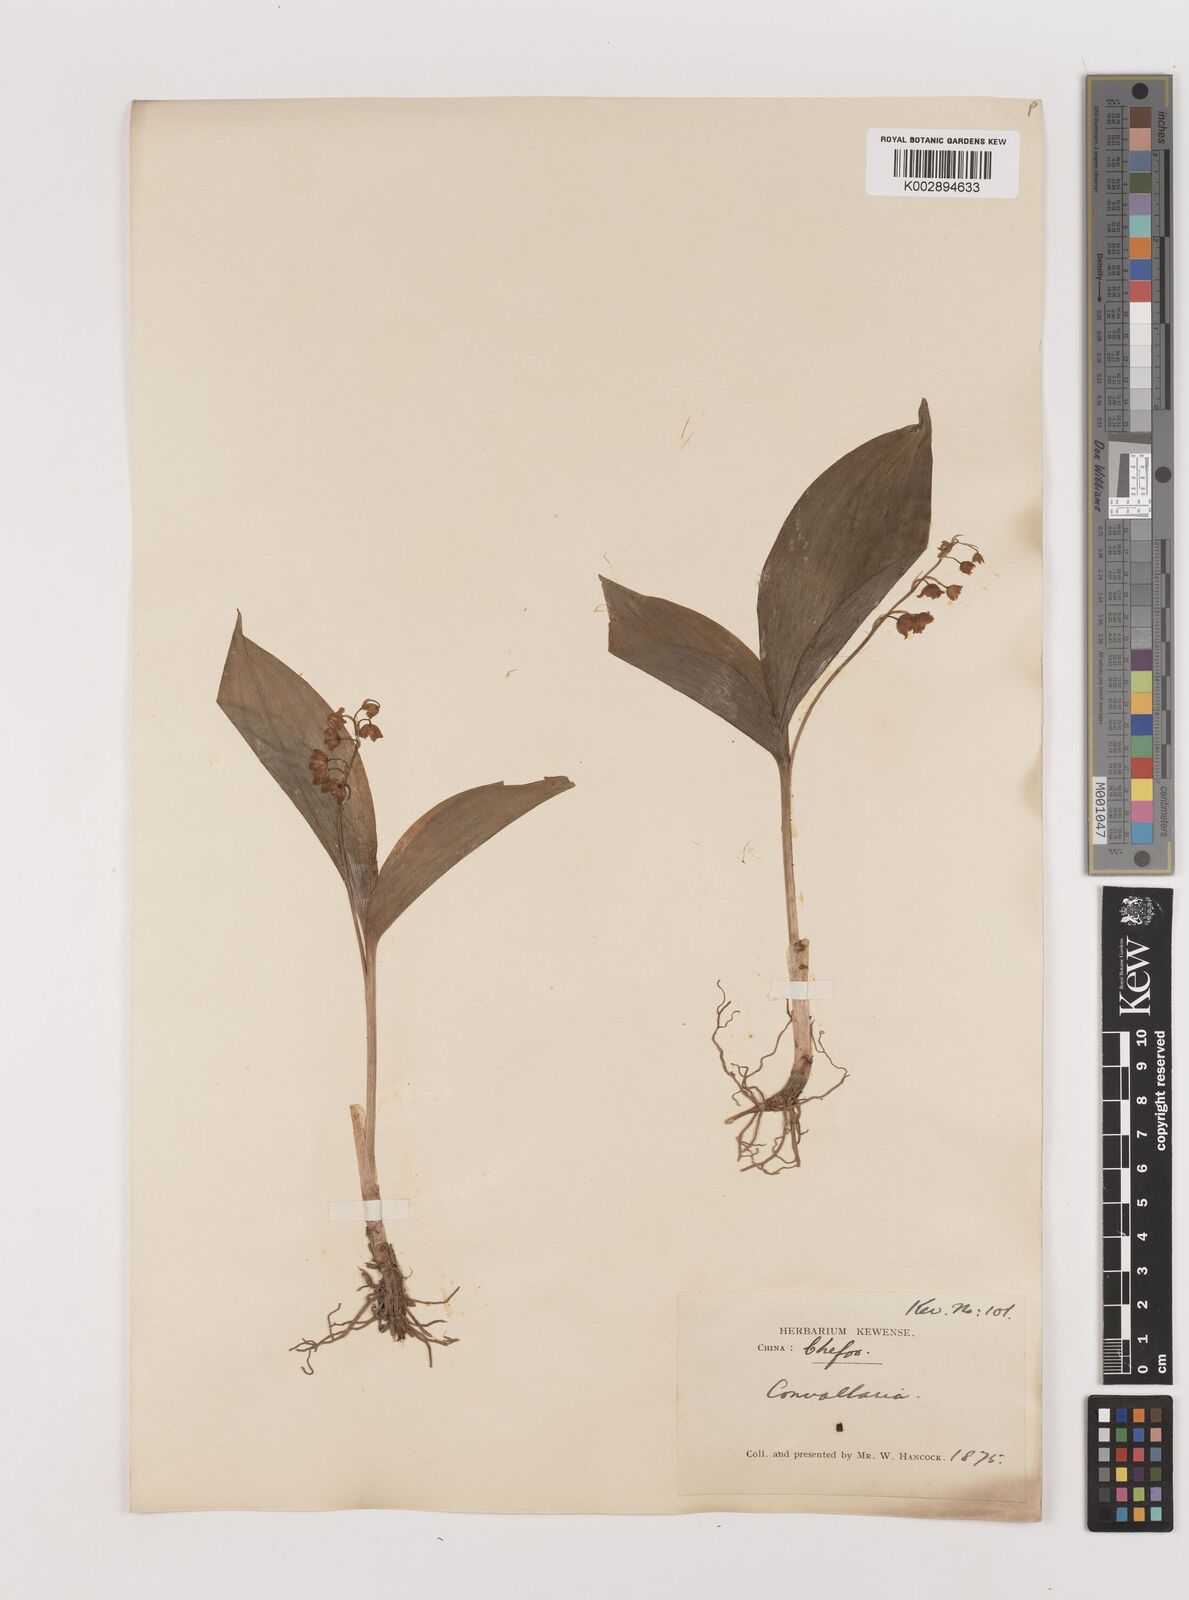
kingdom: Plantae
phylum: Tracheophyta
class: Liliopsida
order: Asparagales
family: Asparagaceae
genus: Ophiopogon
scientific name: Ophiopogon
